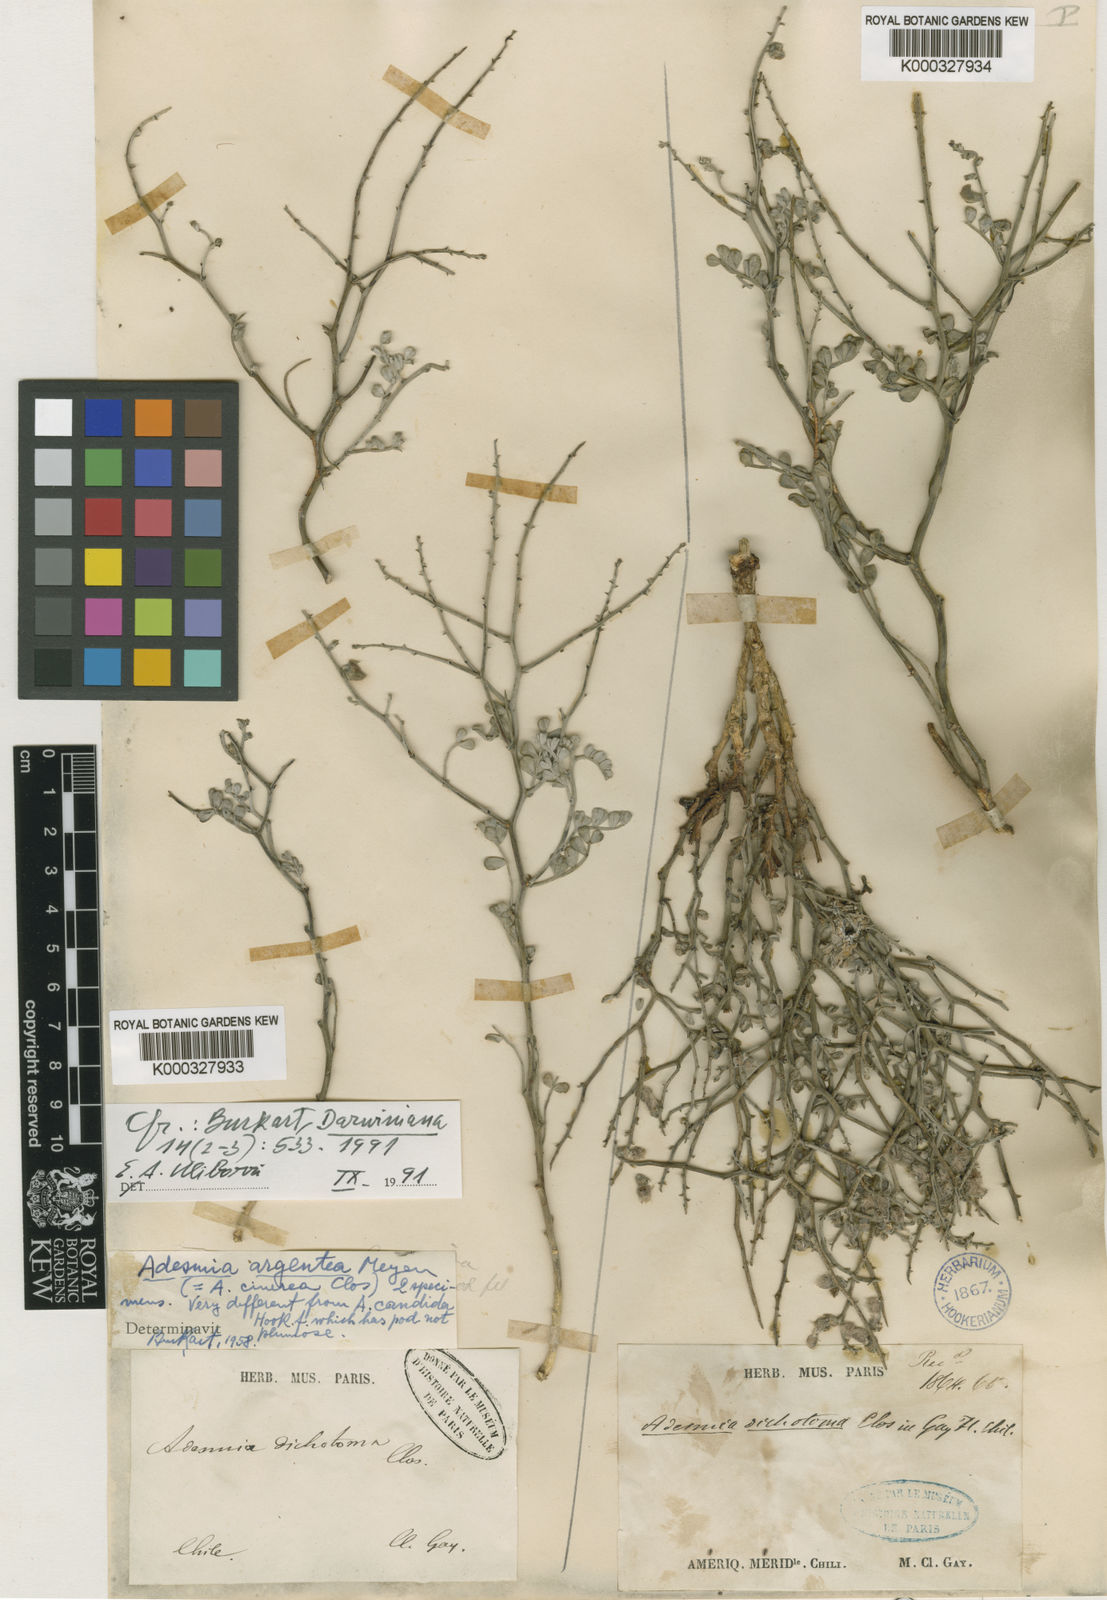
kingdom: Plantae
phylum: Tracheophyta
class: Magnoliopsida
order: Fabales
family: Fabaceae
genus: Adesmia
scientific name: Adesmia dichotoma
